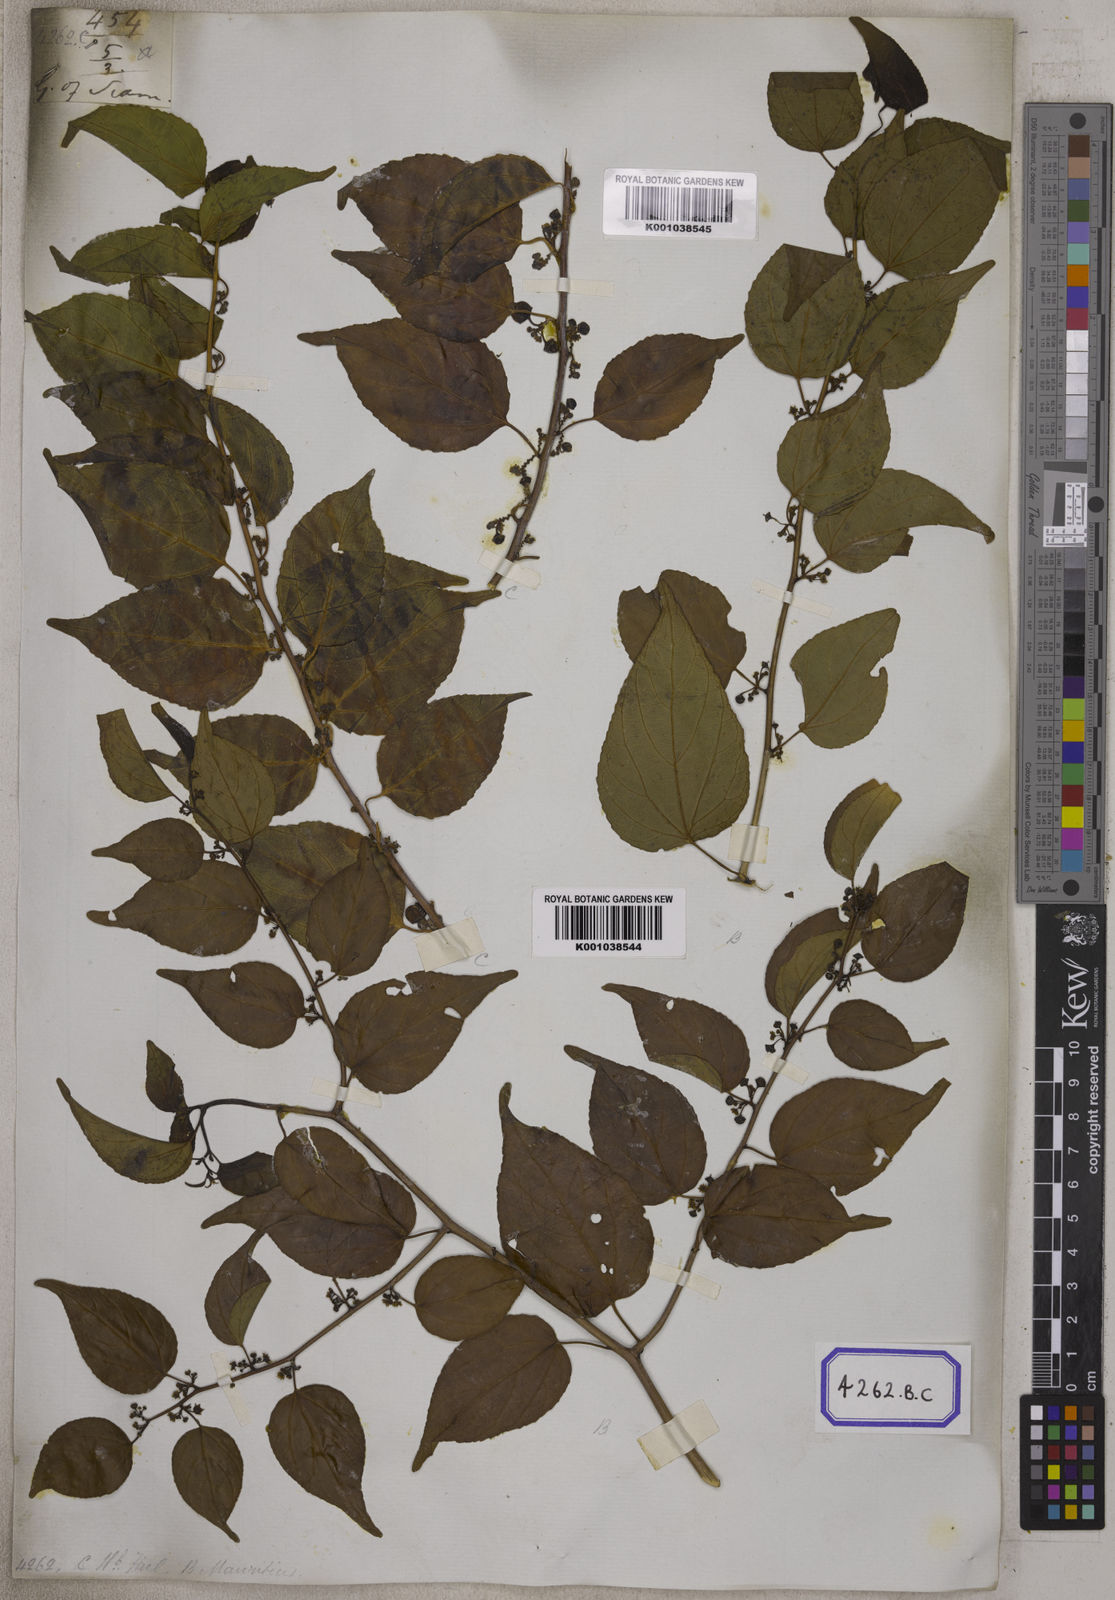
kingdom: Plantae
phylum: Tracheophyta
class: Magnoliopsida
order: Rosales
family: Rhamnaceae
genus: Colubrina
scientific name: Colubrina asiatica
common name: Asian nakedwood
